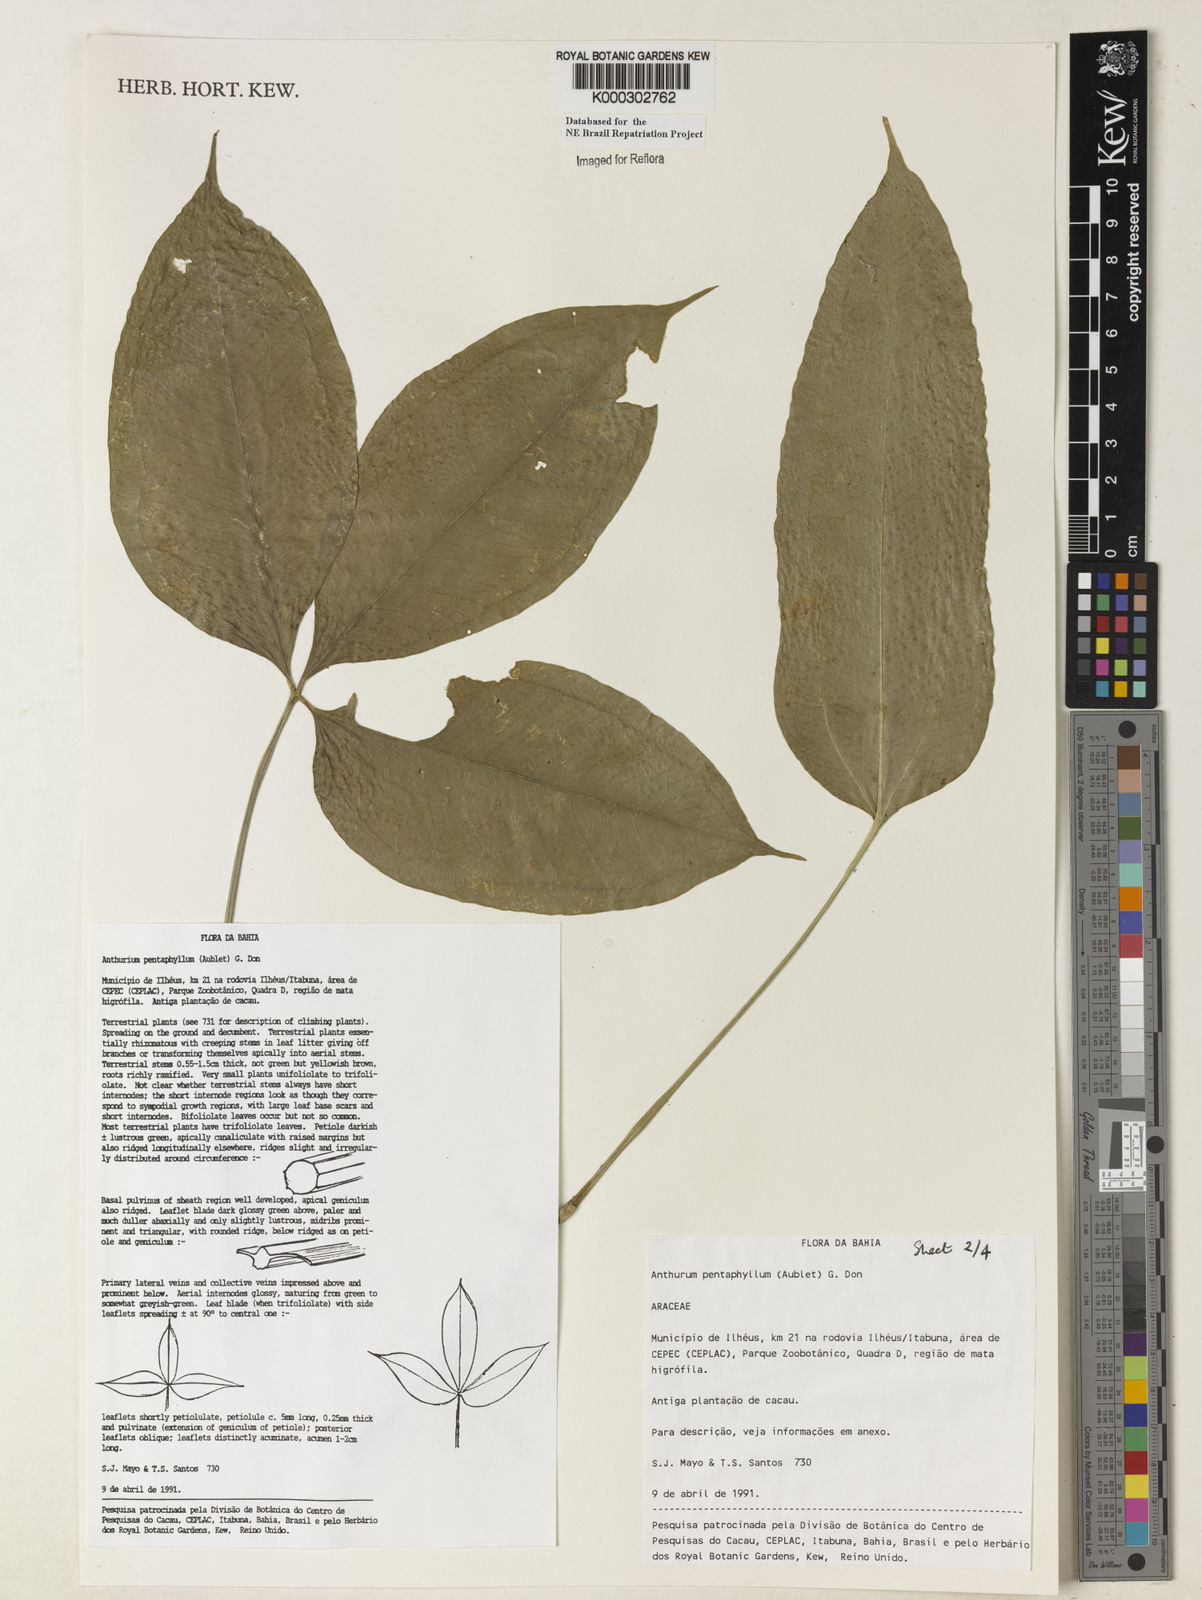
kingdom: Plantae
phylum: Tracheophyta
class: Liliopsida
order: Alismatales
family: Araceae
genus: Anthurium
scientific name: Anthurium pentaphyllum
